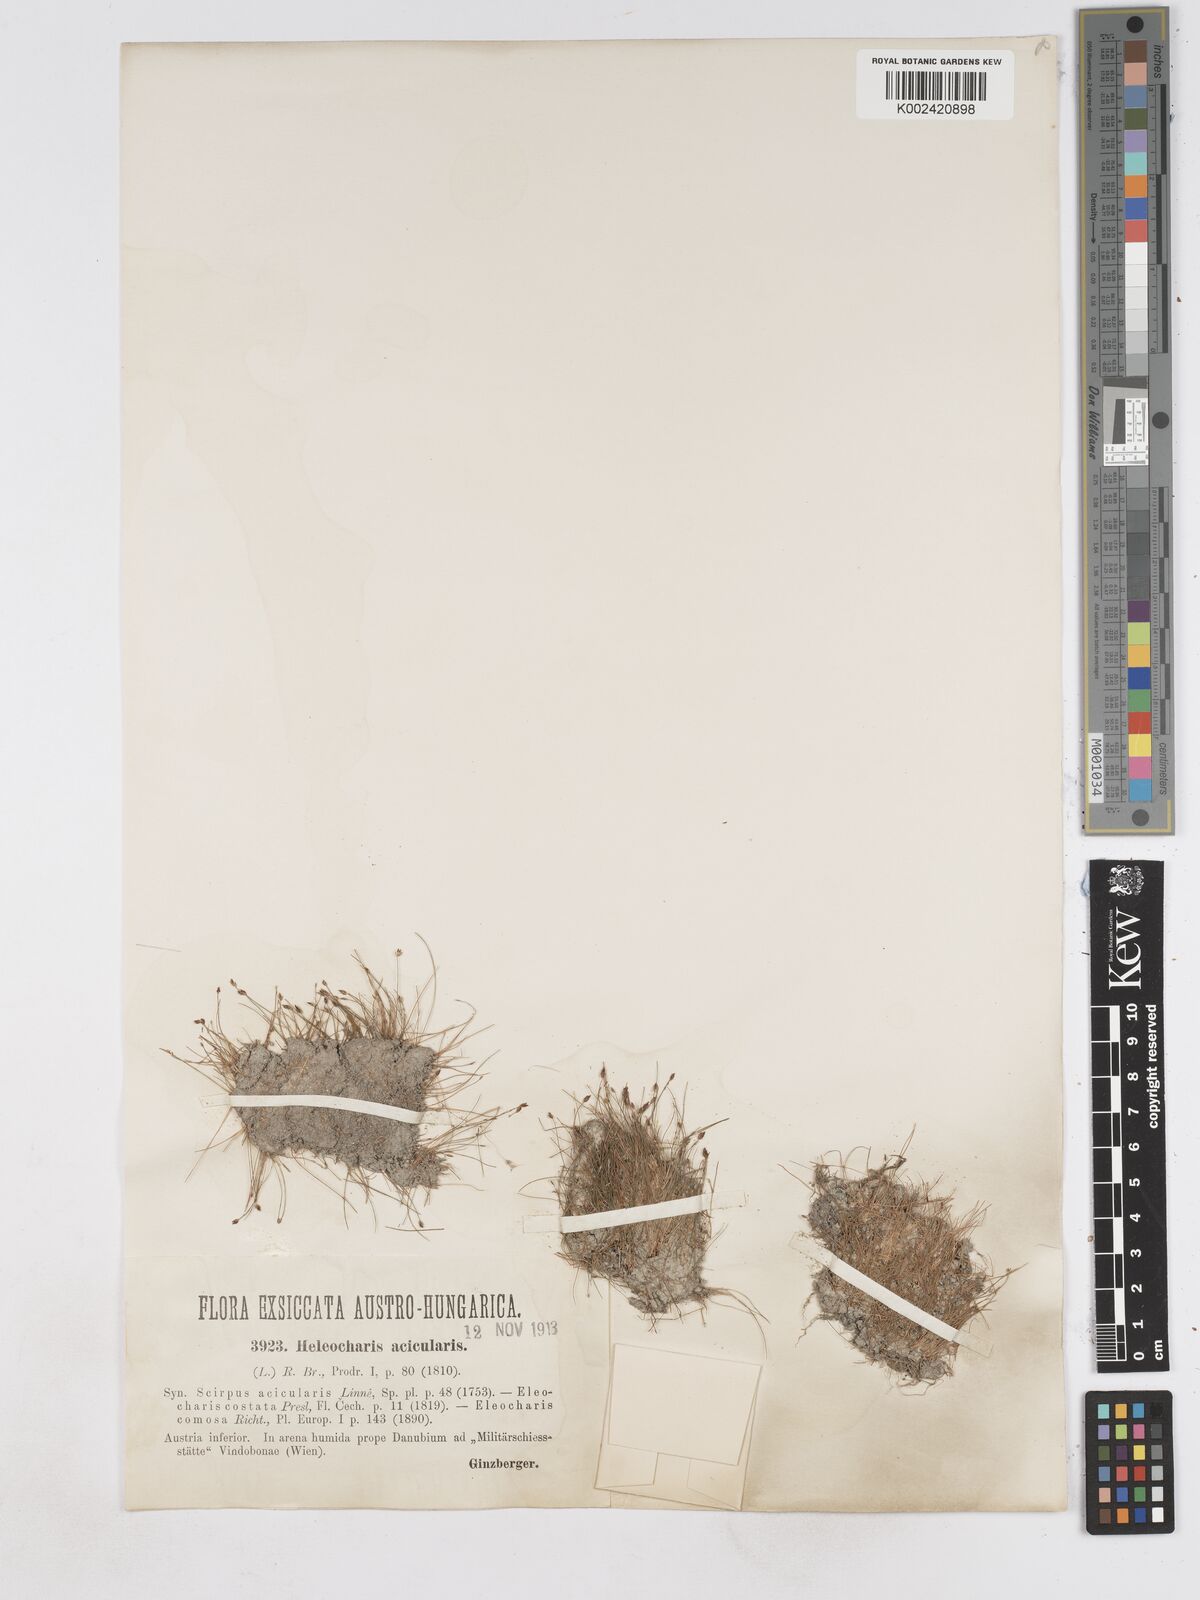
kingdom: Plantae
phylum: Tracheophyta
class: Liliopsida
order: Poales
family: Cyperaceae
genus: Eleocharis
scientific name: Eleocharis acicularis
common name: Needle spike-rush
